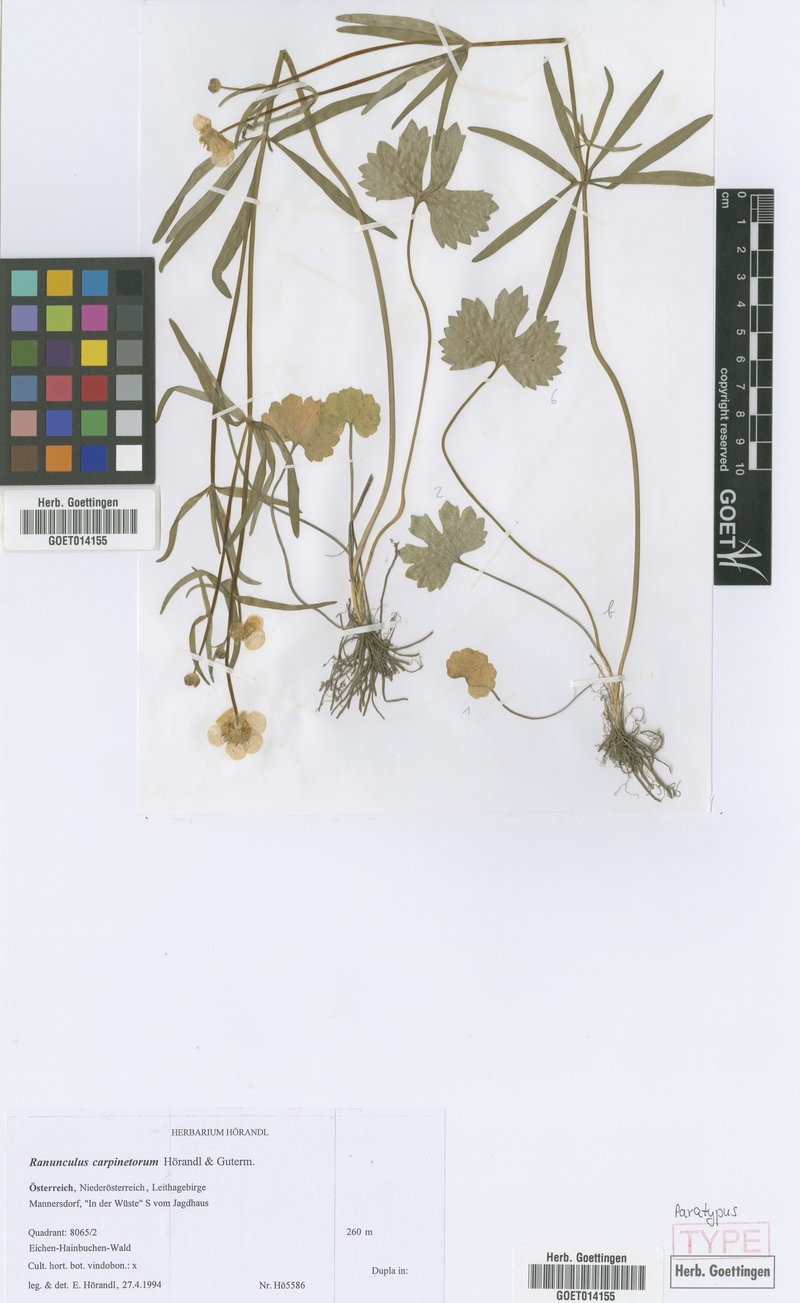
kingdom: Plantae
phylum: Tracheophyta
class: Magnoliopsida
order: Ranunculales
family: Ranunculaceae
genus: Ranunculus
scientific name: Ranunculus carpinetorum
